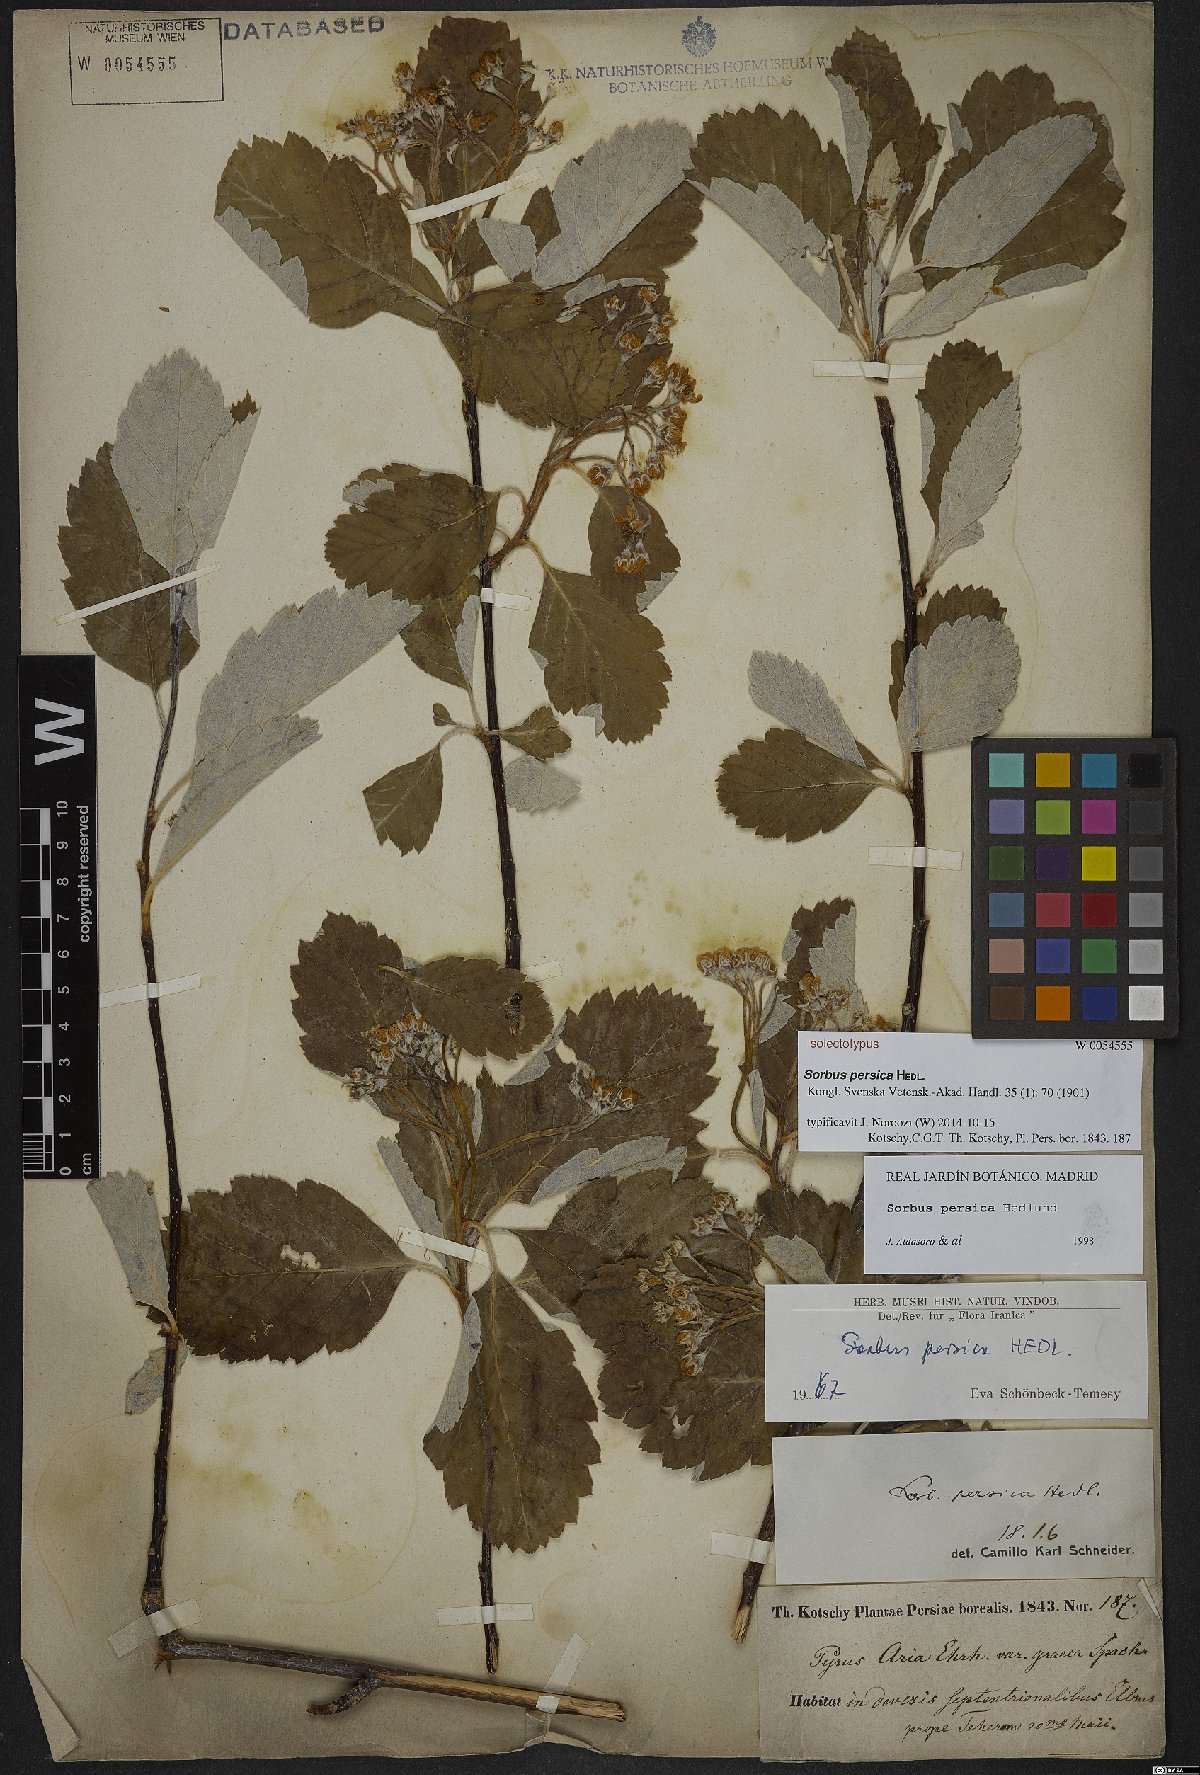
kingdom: Plantae
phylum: Tracheophyta
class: Magnoliopsida
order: Rosales
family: Rosaceae
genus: Hedlundia
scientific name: Hedlundia persica
